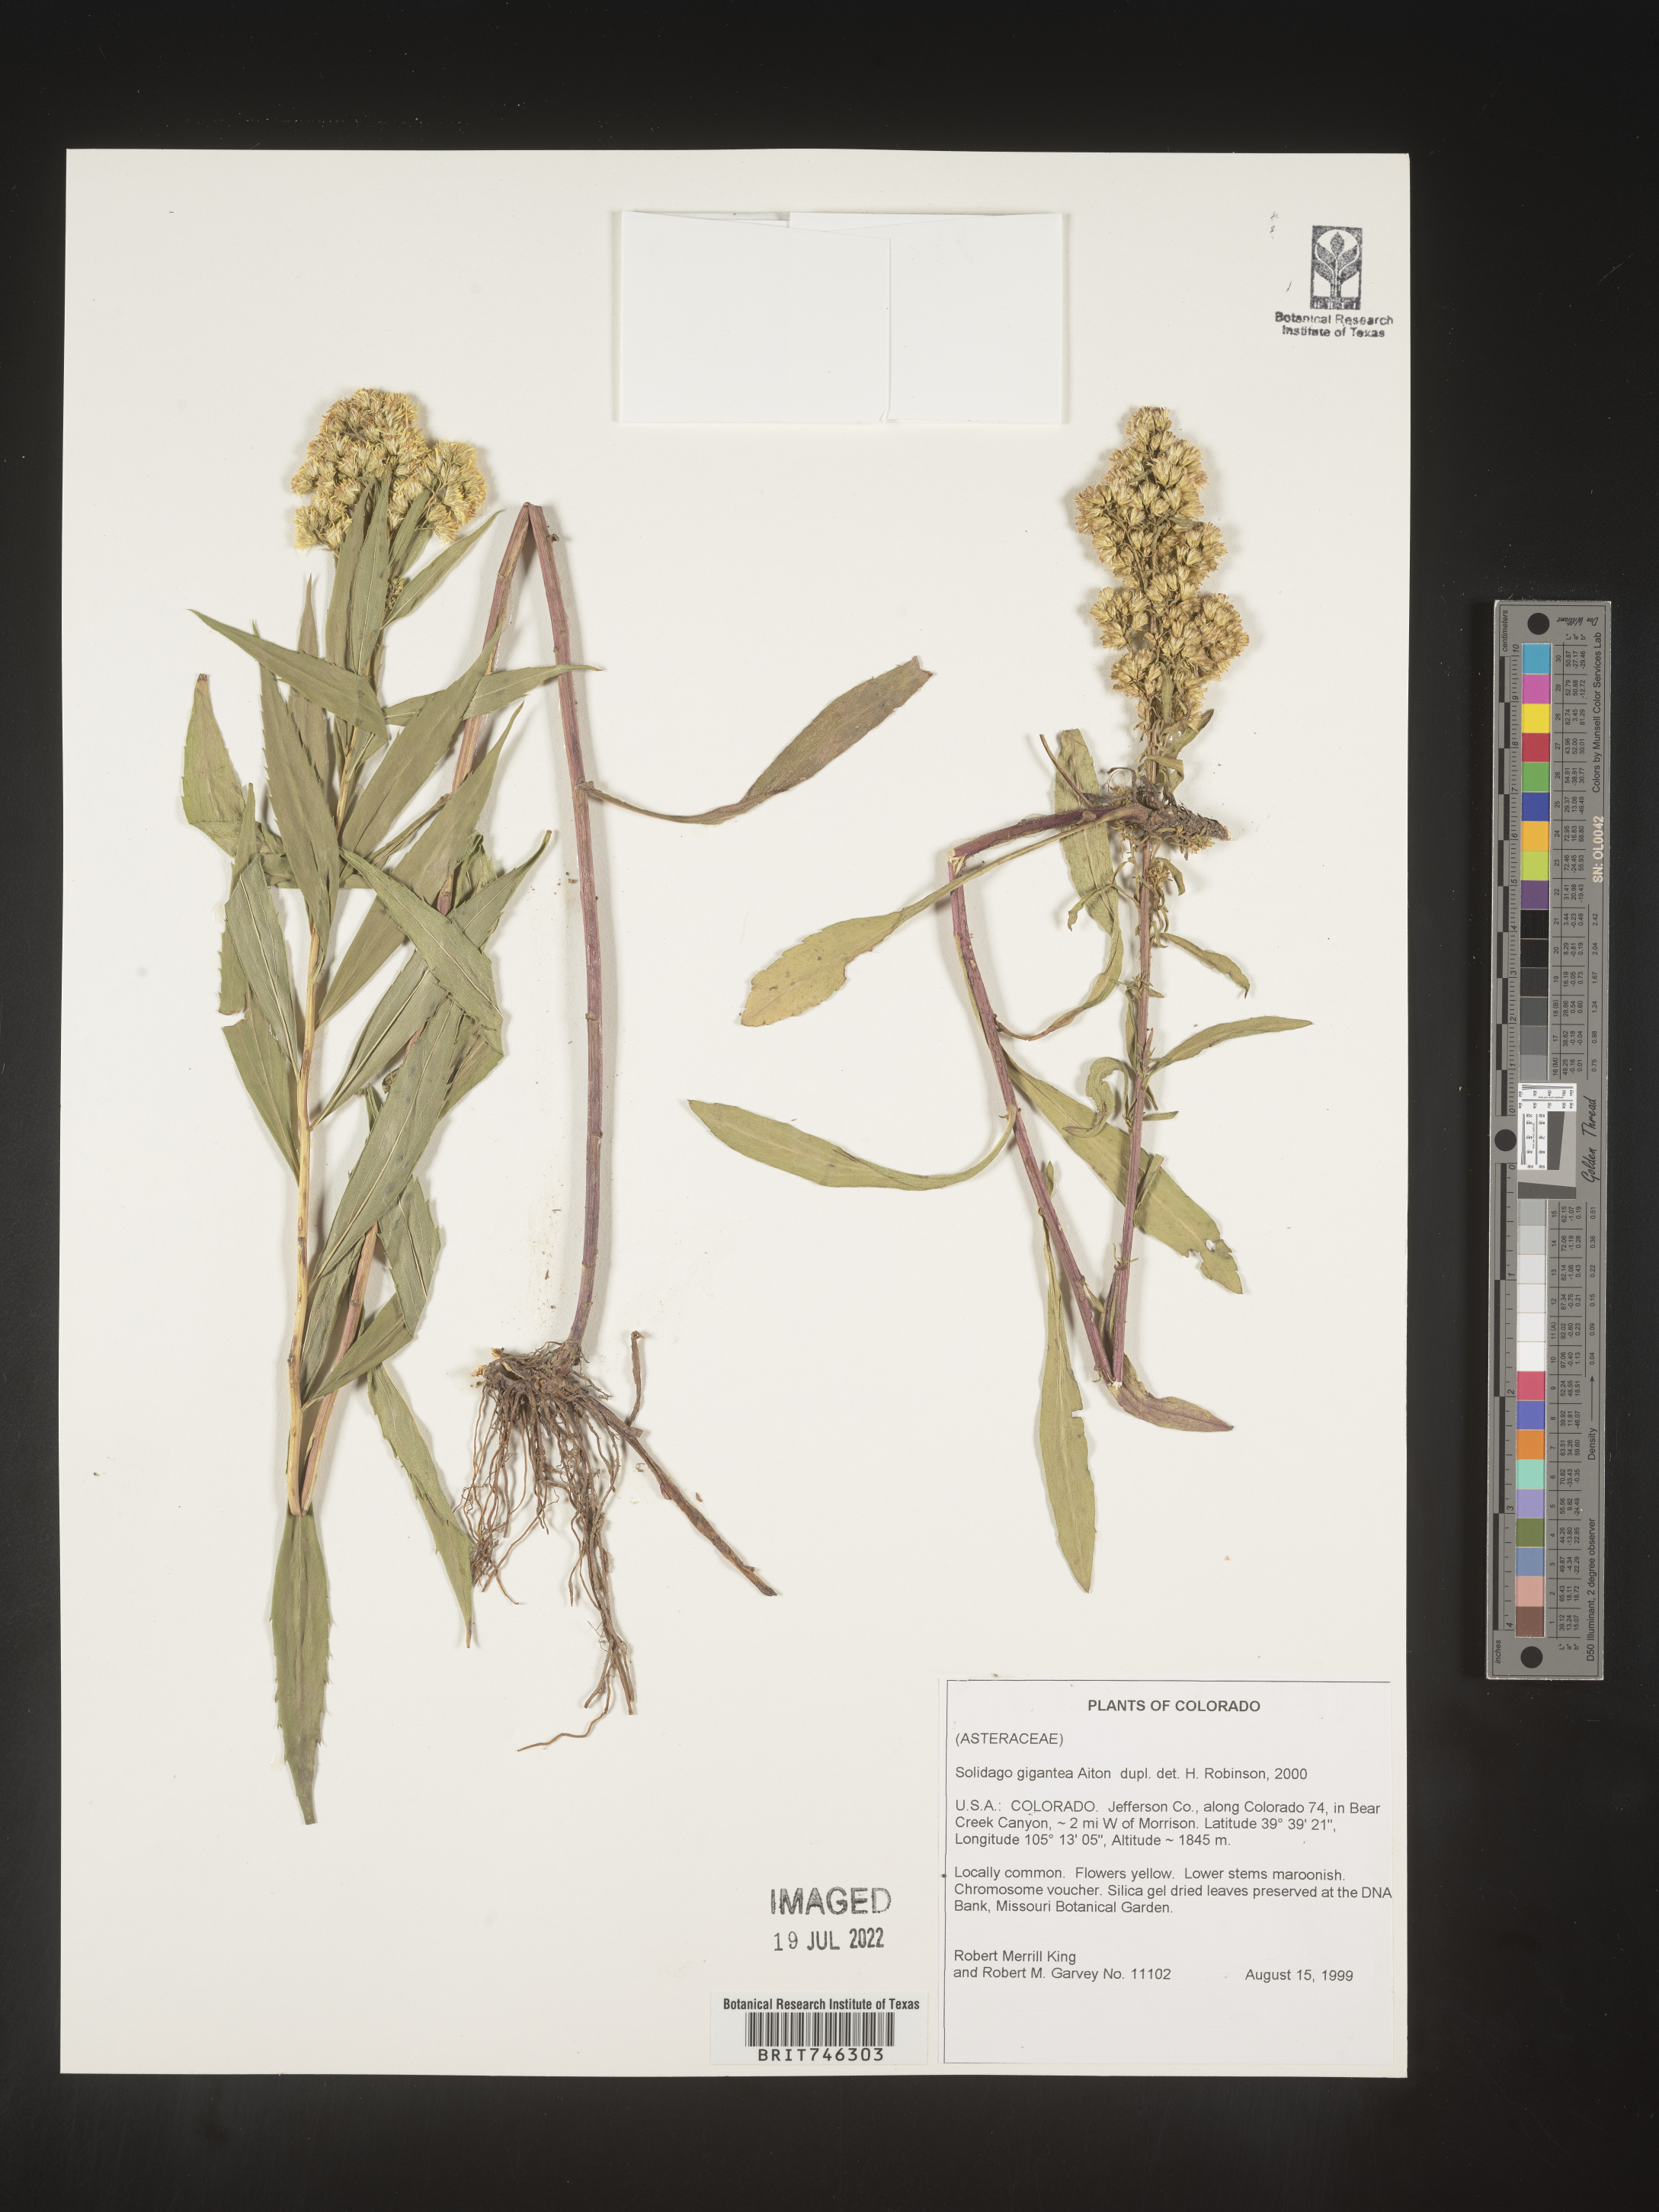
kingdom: Plantae
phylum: Tracheophyta
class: Magnoliopsida
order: Asterales
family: Asteraceae
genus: Solidago
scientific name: Solidago gigantea
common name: Giant goldenrod
